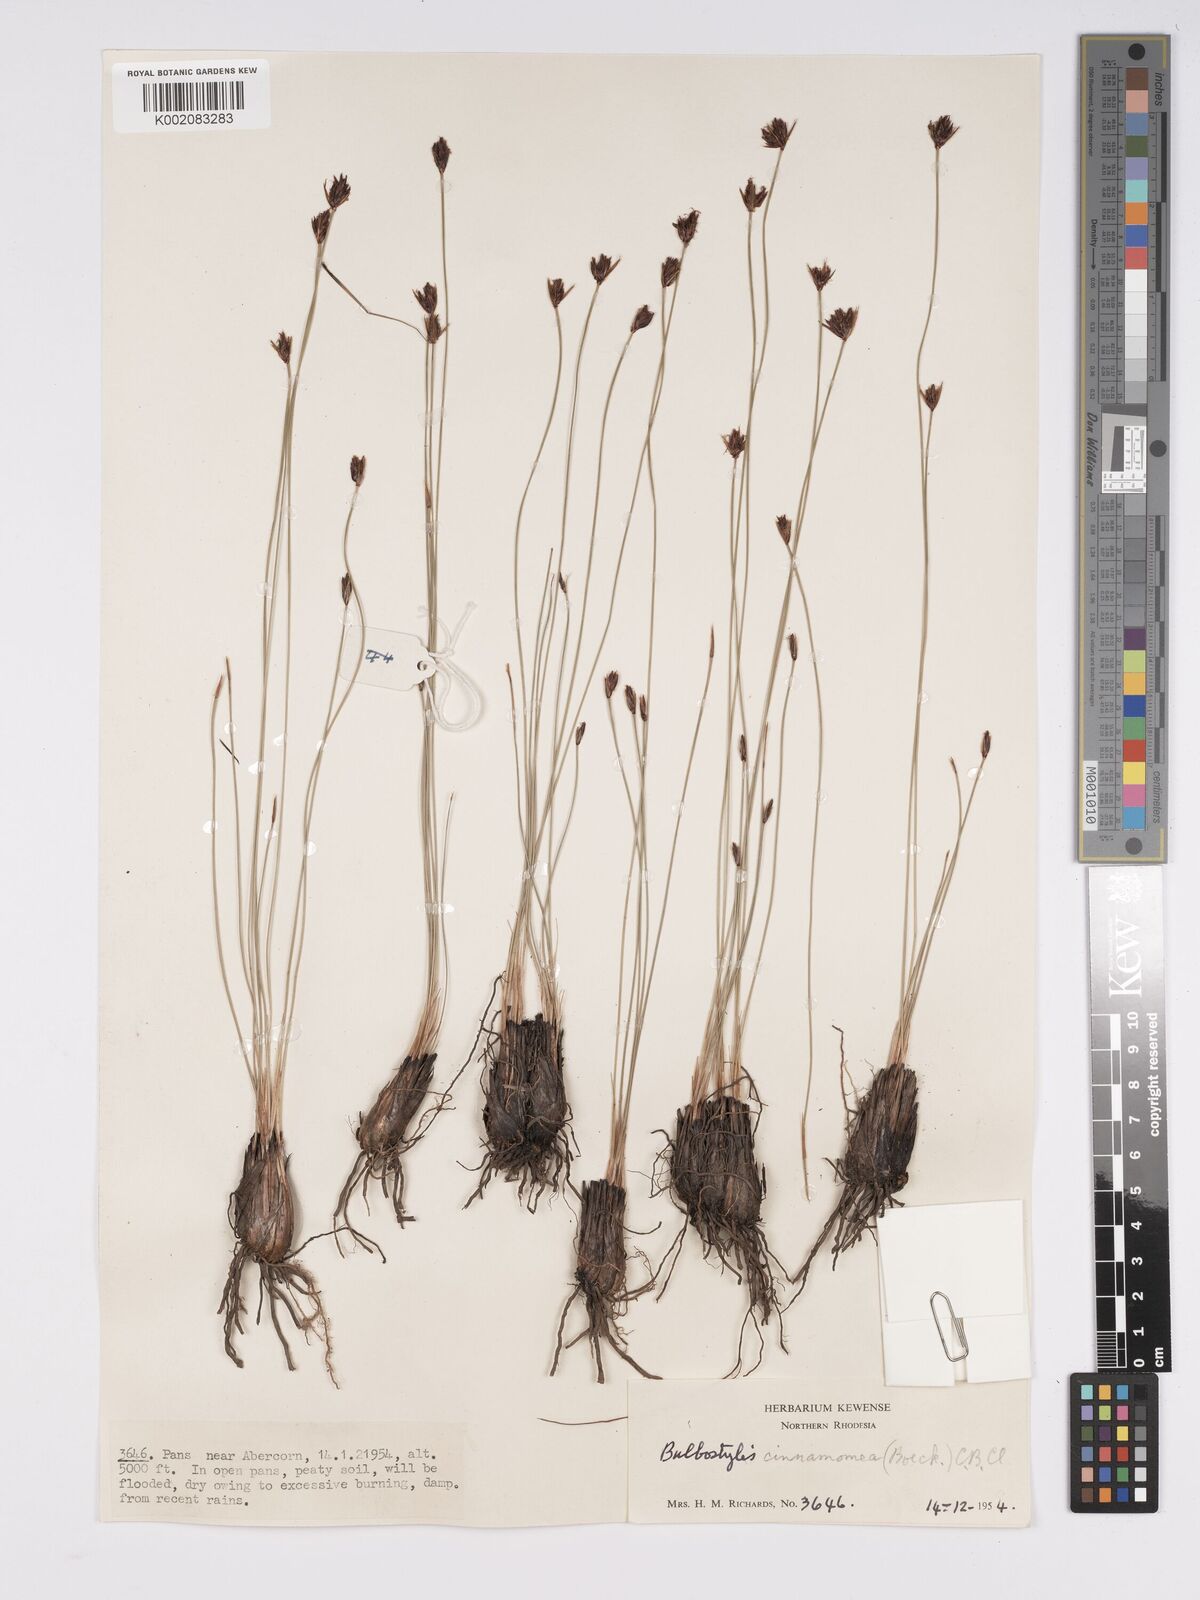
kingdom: Plantae
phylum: Tracheophyta
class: Liliopsida
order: Poales
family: Cyperaceae
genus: Bulbostylis
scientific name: Bulbostylis schoenoides
